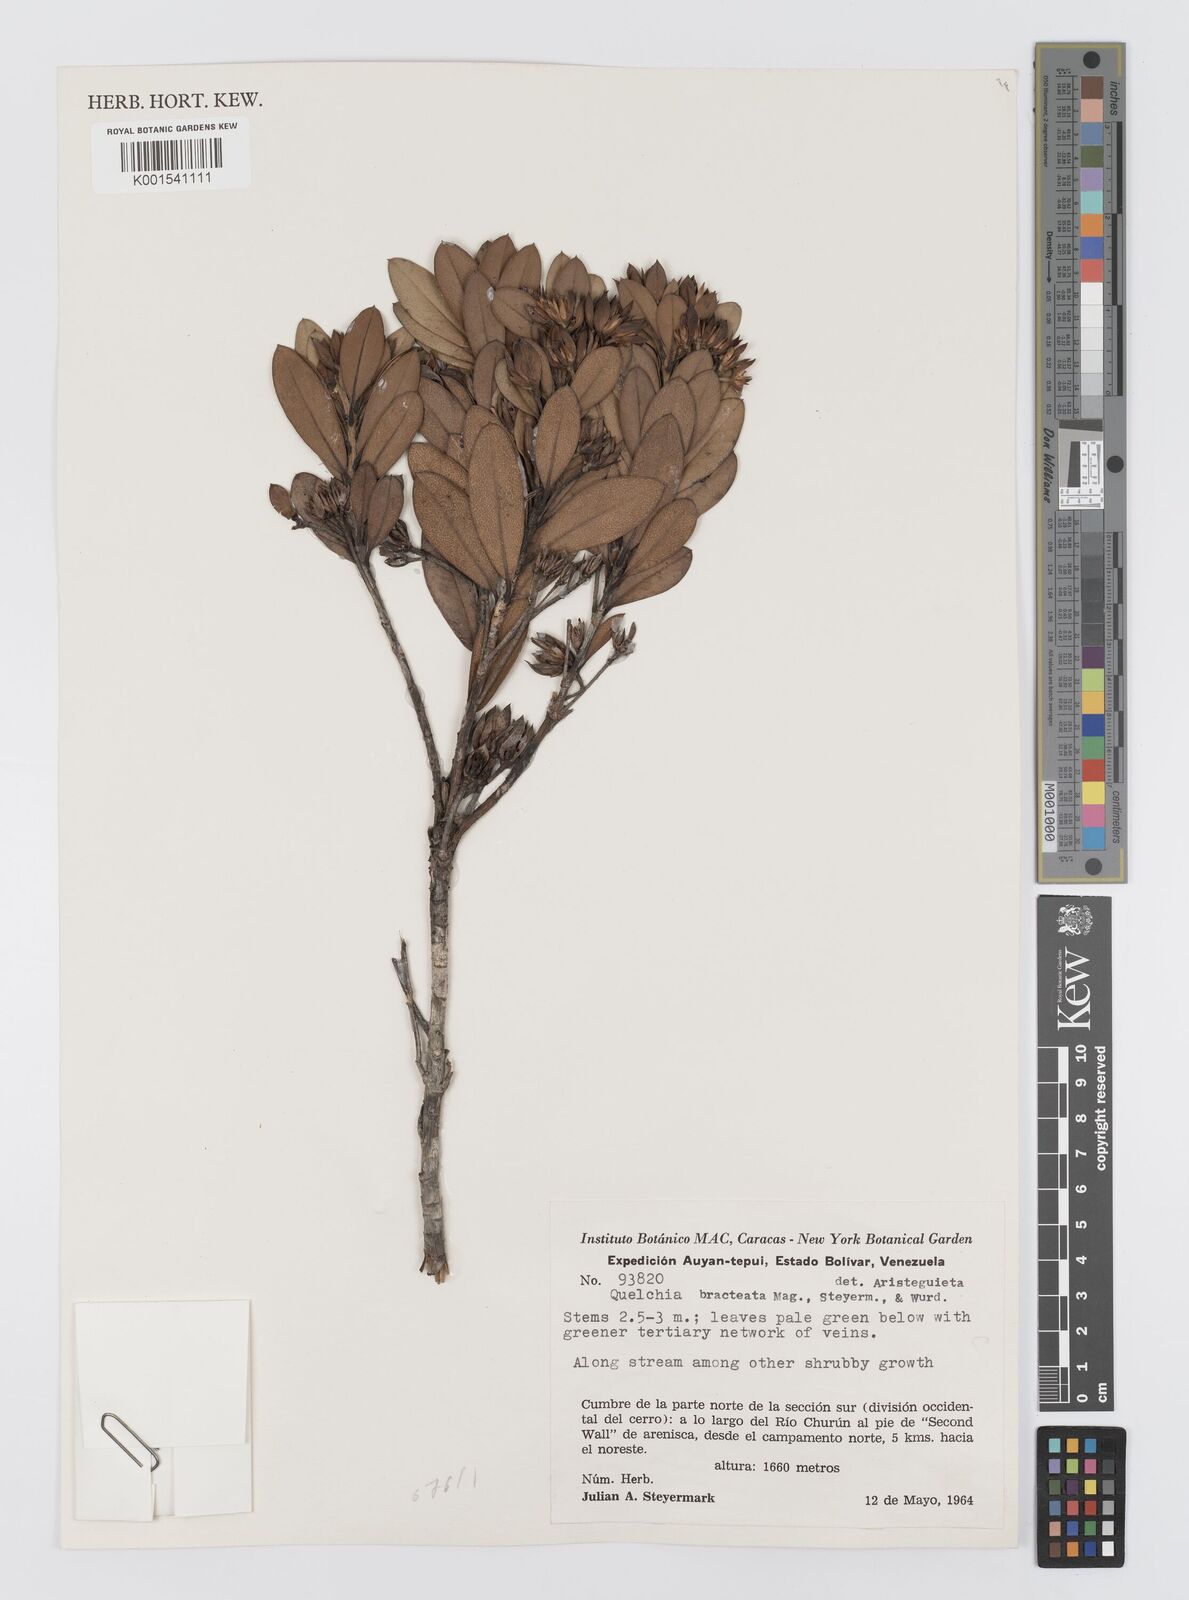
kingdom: Plantae
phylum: Tracheophyta
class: Magnoliopsida
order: Asterales
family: Asteraceae
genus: Quelchia
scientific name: Quelchia bracteata
